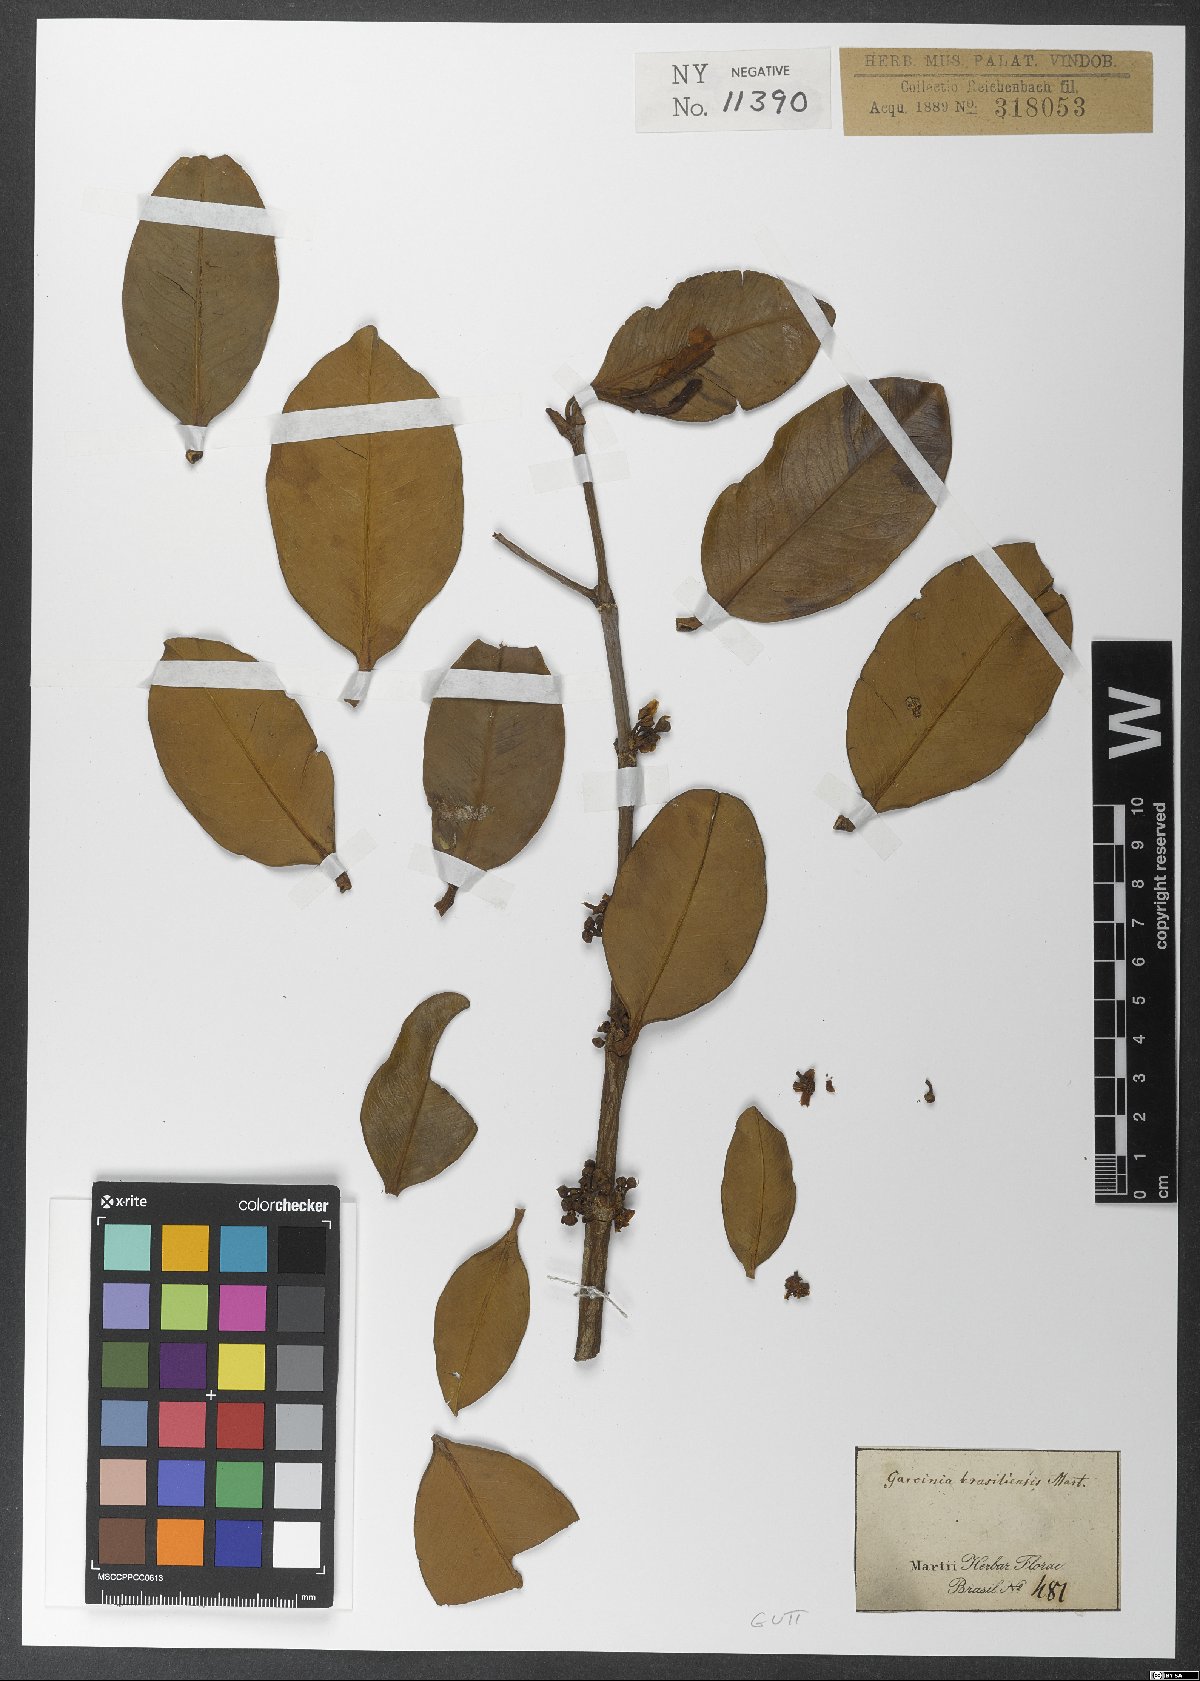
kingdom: Plantae
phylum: Tracheophyta
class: Magnoliopsida
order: Malpighiales
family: Clusiaceae
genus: Garcinia
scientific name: Garcinia brasiliensis
